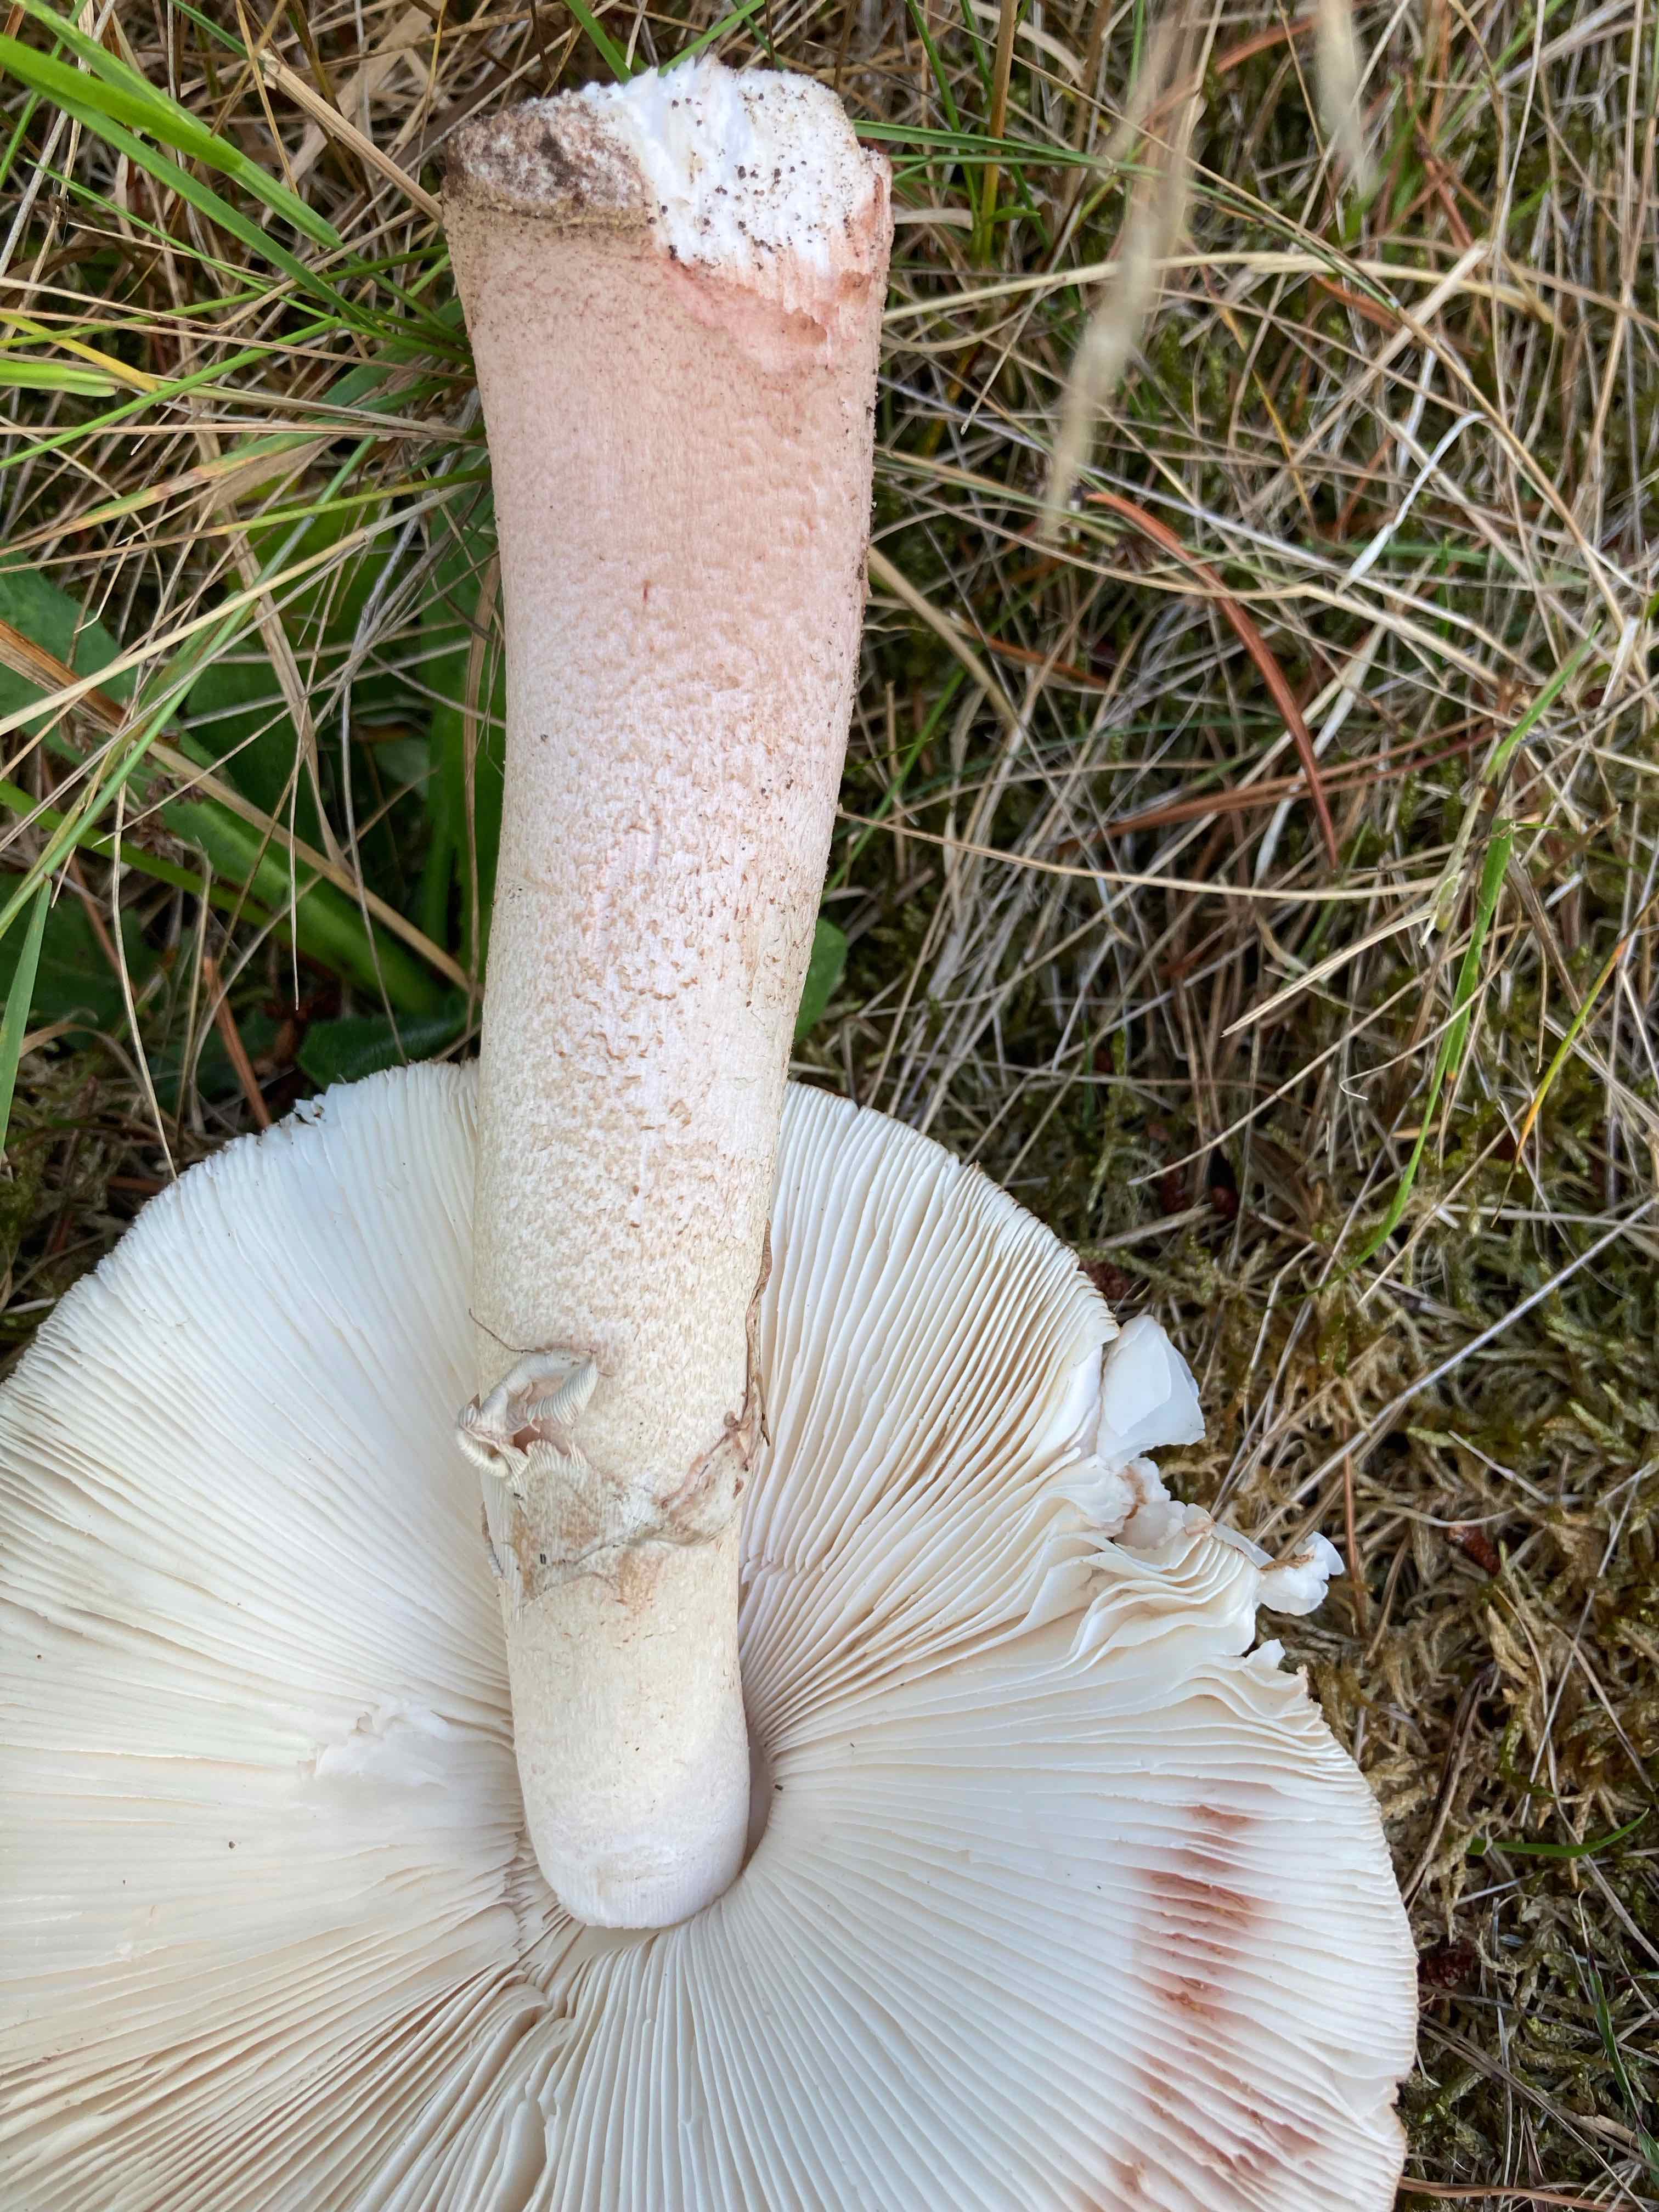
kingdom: Fungi
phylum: Basidiomycota
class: Agaricomycetes
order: Agaricales
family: Amanitaceae
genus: Amanita
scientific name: Amanita rubescens
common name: rødmende fluesvamp
